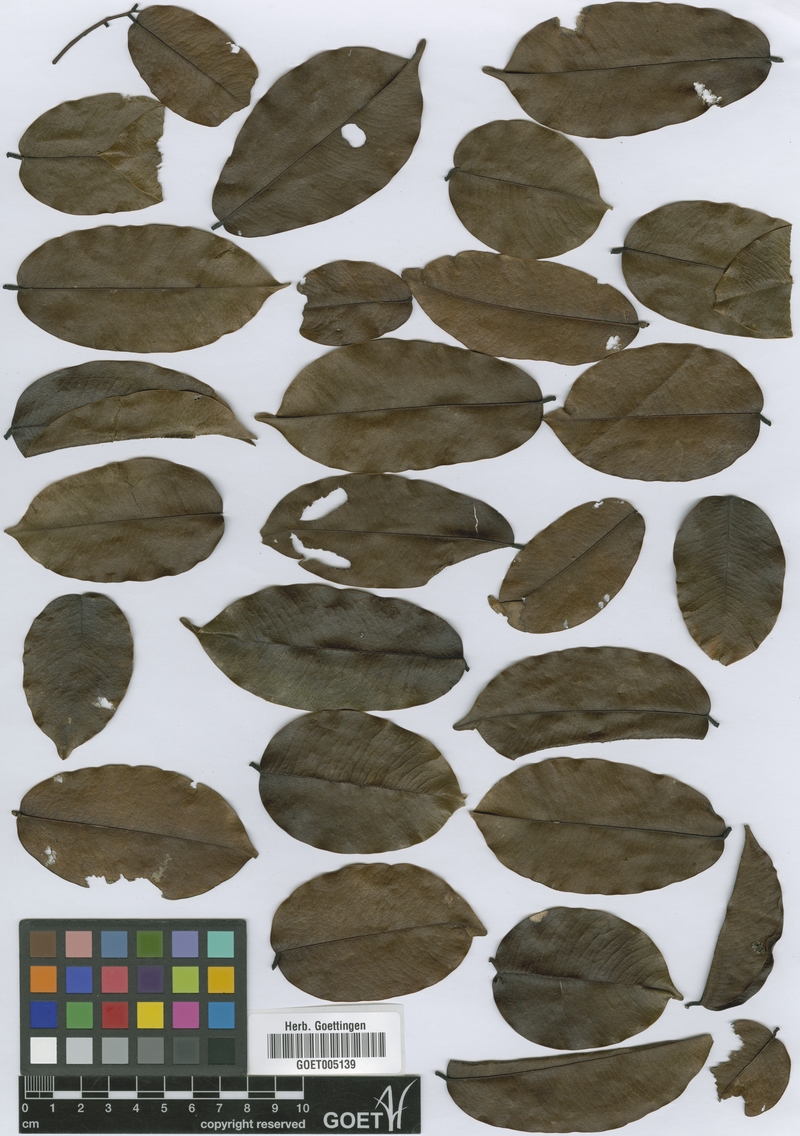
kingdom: Plantae
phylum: Tracheophyta
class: Magnoliopsida
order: Fabales
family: Fabaceae
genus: Machaerium
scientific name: Machaerium kegelii
